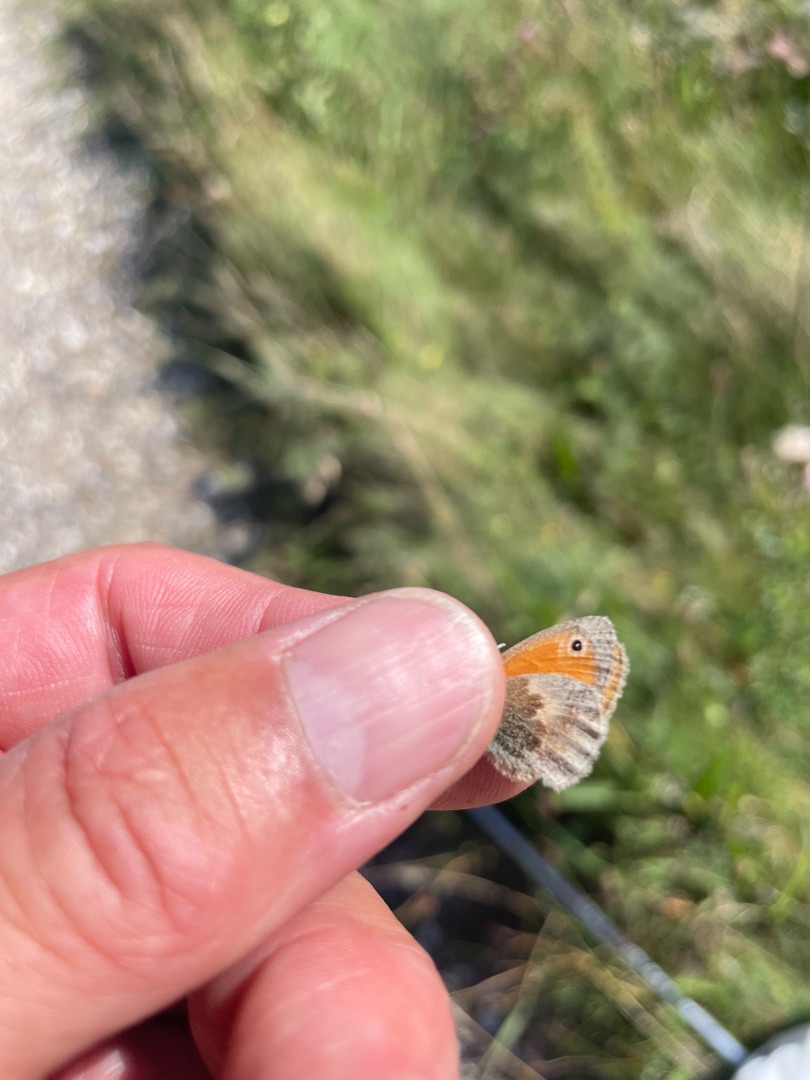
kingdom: Animalia
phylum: Arthropoda
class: Insecta
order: Lepidoptera
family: Nymphalidae
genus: Coenonympha
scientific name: Coenonympha pamphilus
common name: Okkergul randøje
